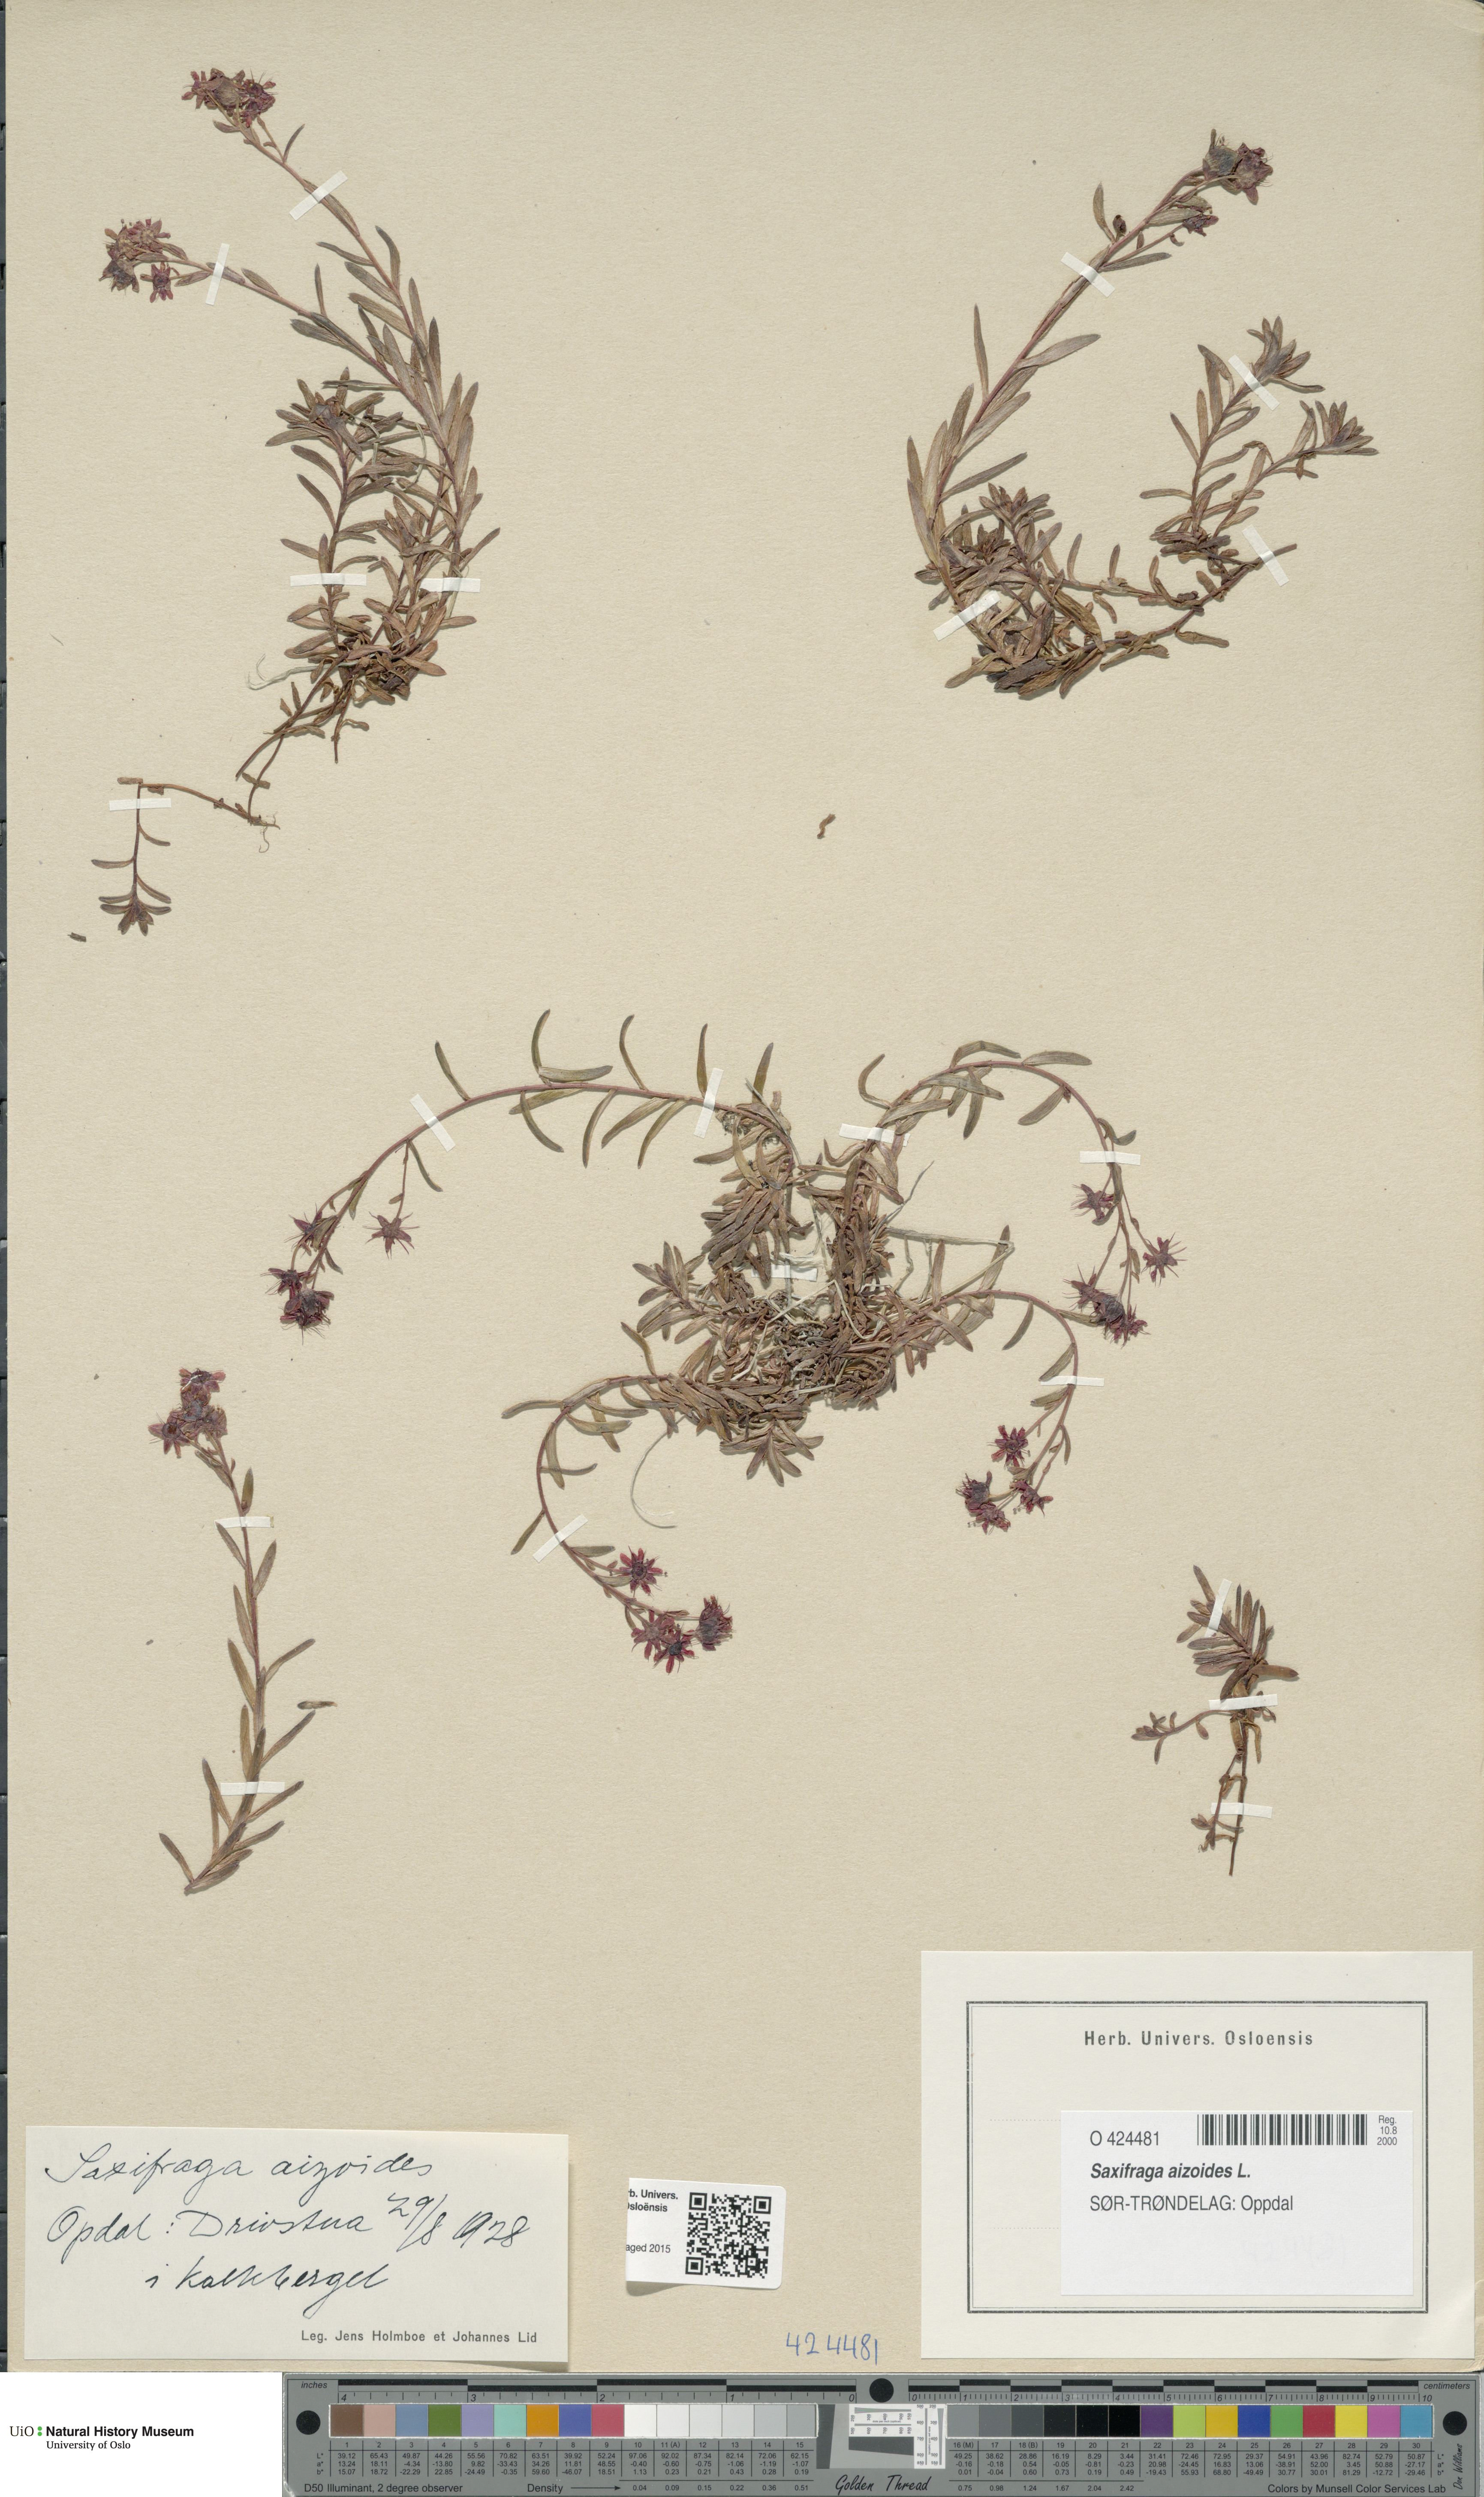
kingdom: Plantae
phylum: Tracheophyta
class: Magnoliopsida
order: Saxifragales
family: Saxifragaceae
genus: Saxifraga
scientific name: Saxifraga aizoides
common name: Yellow mountain saxifrage
